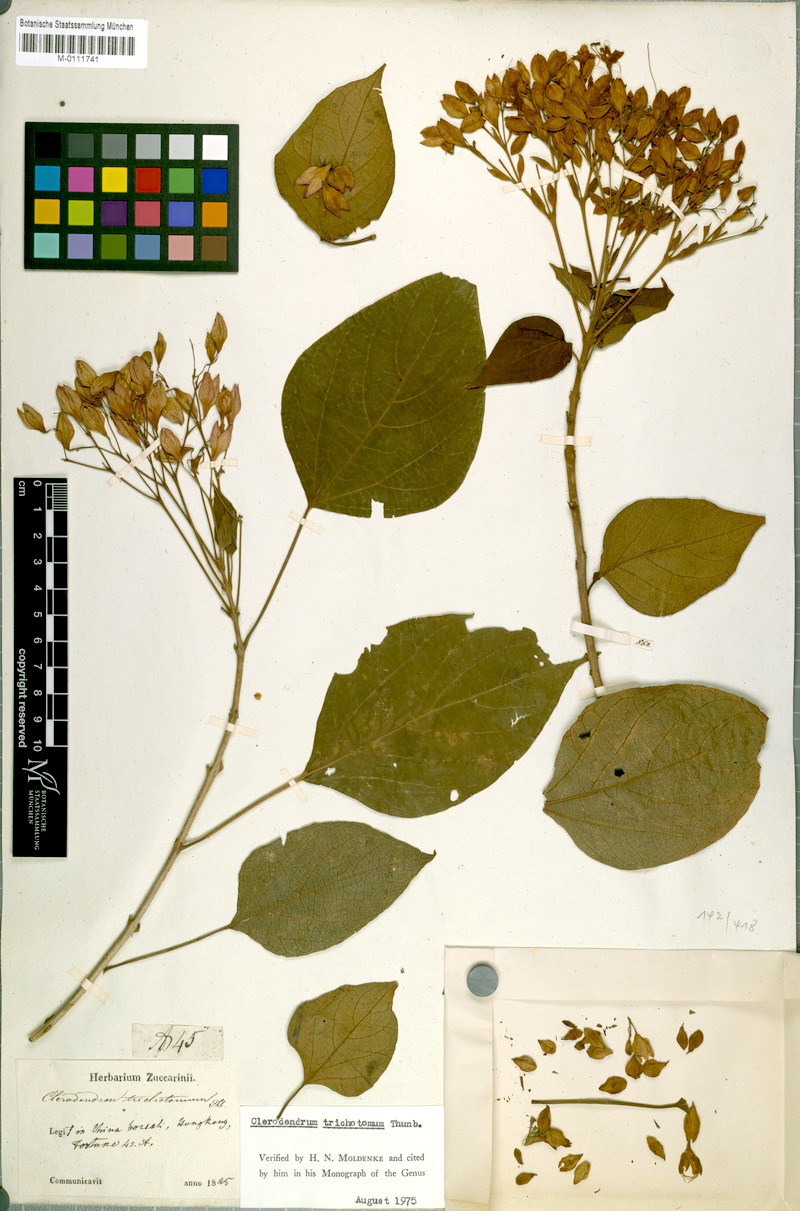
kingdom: Plantae
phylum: Tracheophyta
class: Magnoliopsida
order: Lamiales
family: Lamiaceae
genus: Clerodendrum
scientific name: Clerodendrum trichotomum
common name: Harlequin glorybower
